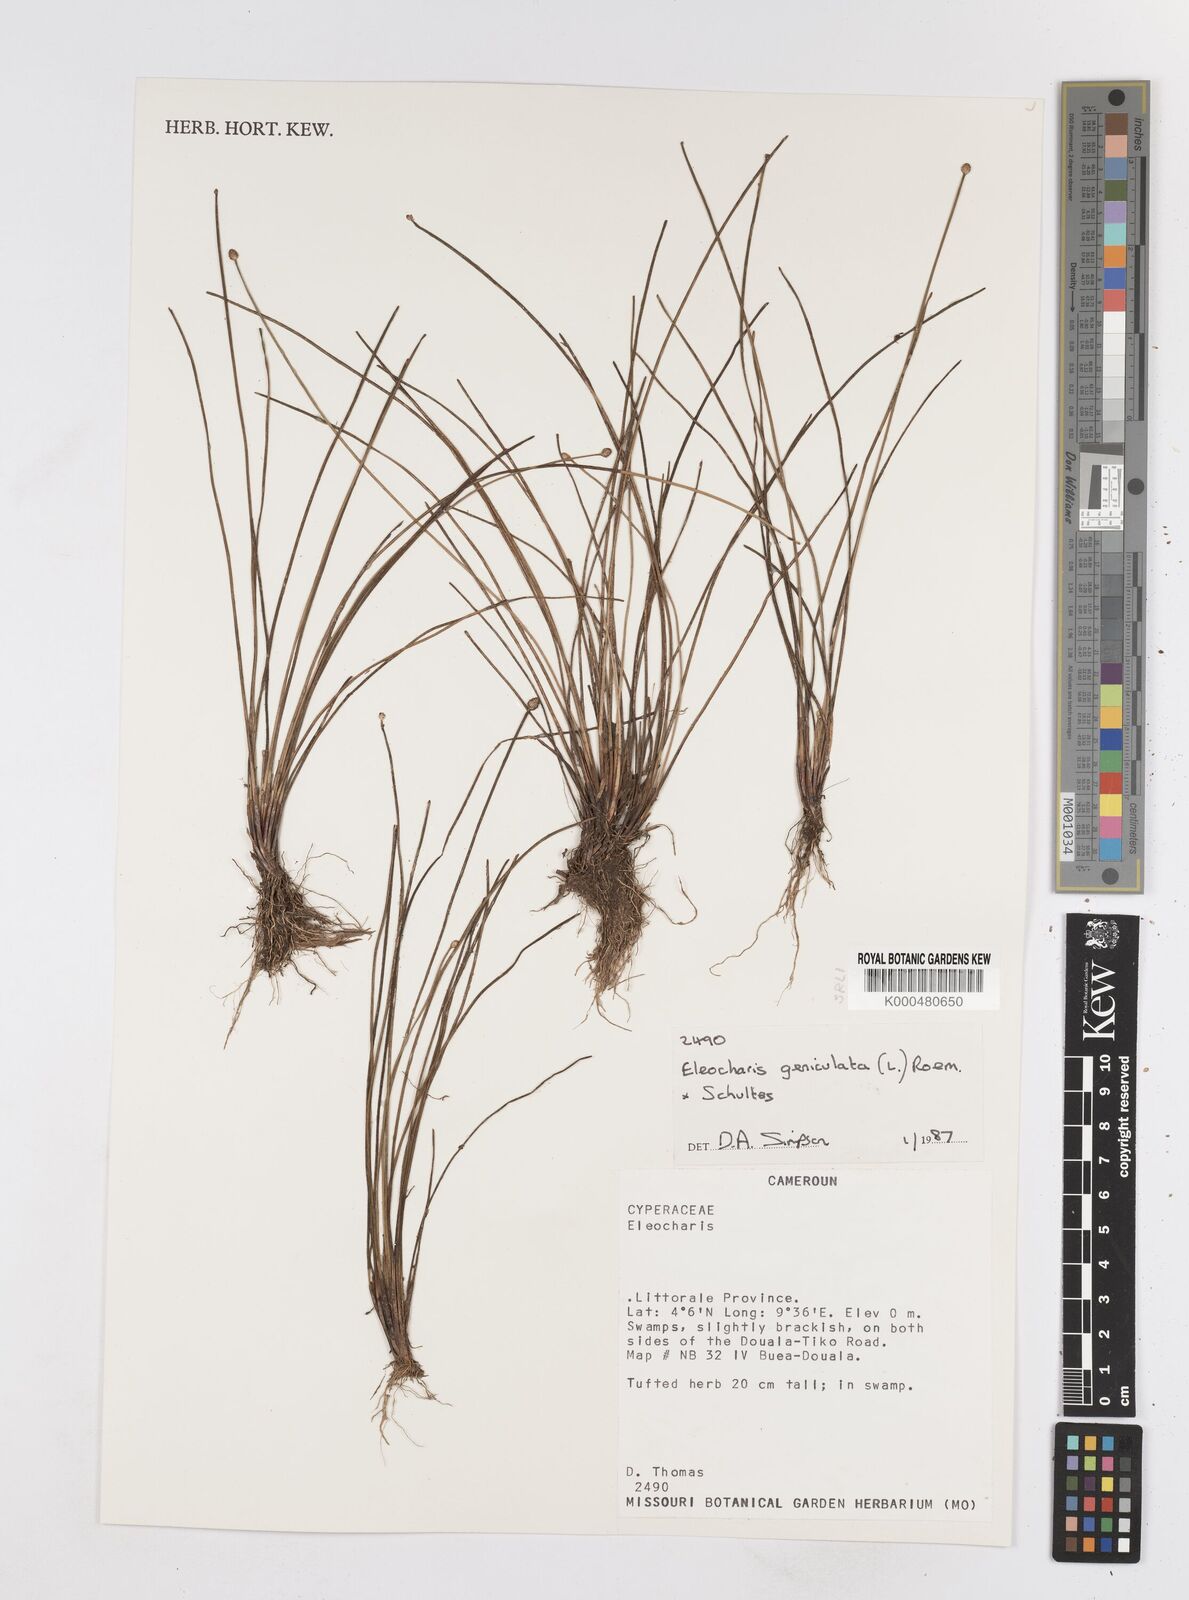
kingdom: Plantae
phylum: Tracheophyta
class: Liliopsida
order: Poales
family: Cyperaceae
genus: Eleocharis
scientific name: Eleocharis geniculata
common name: Canada spikesedge
